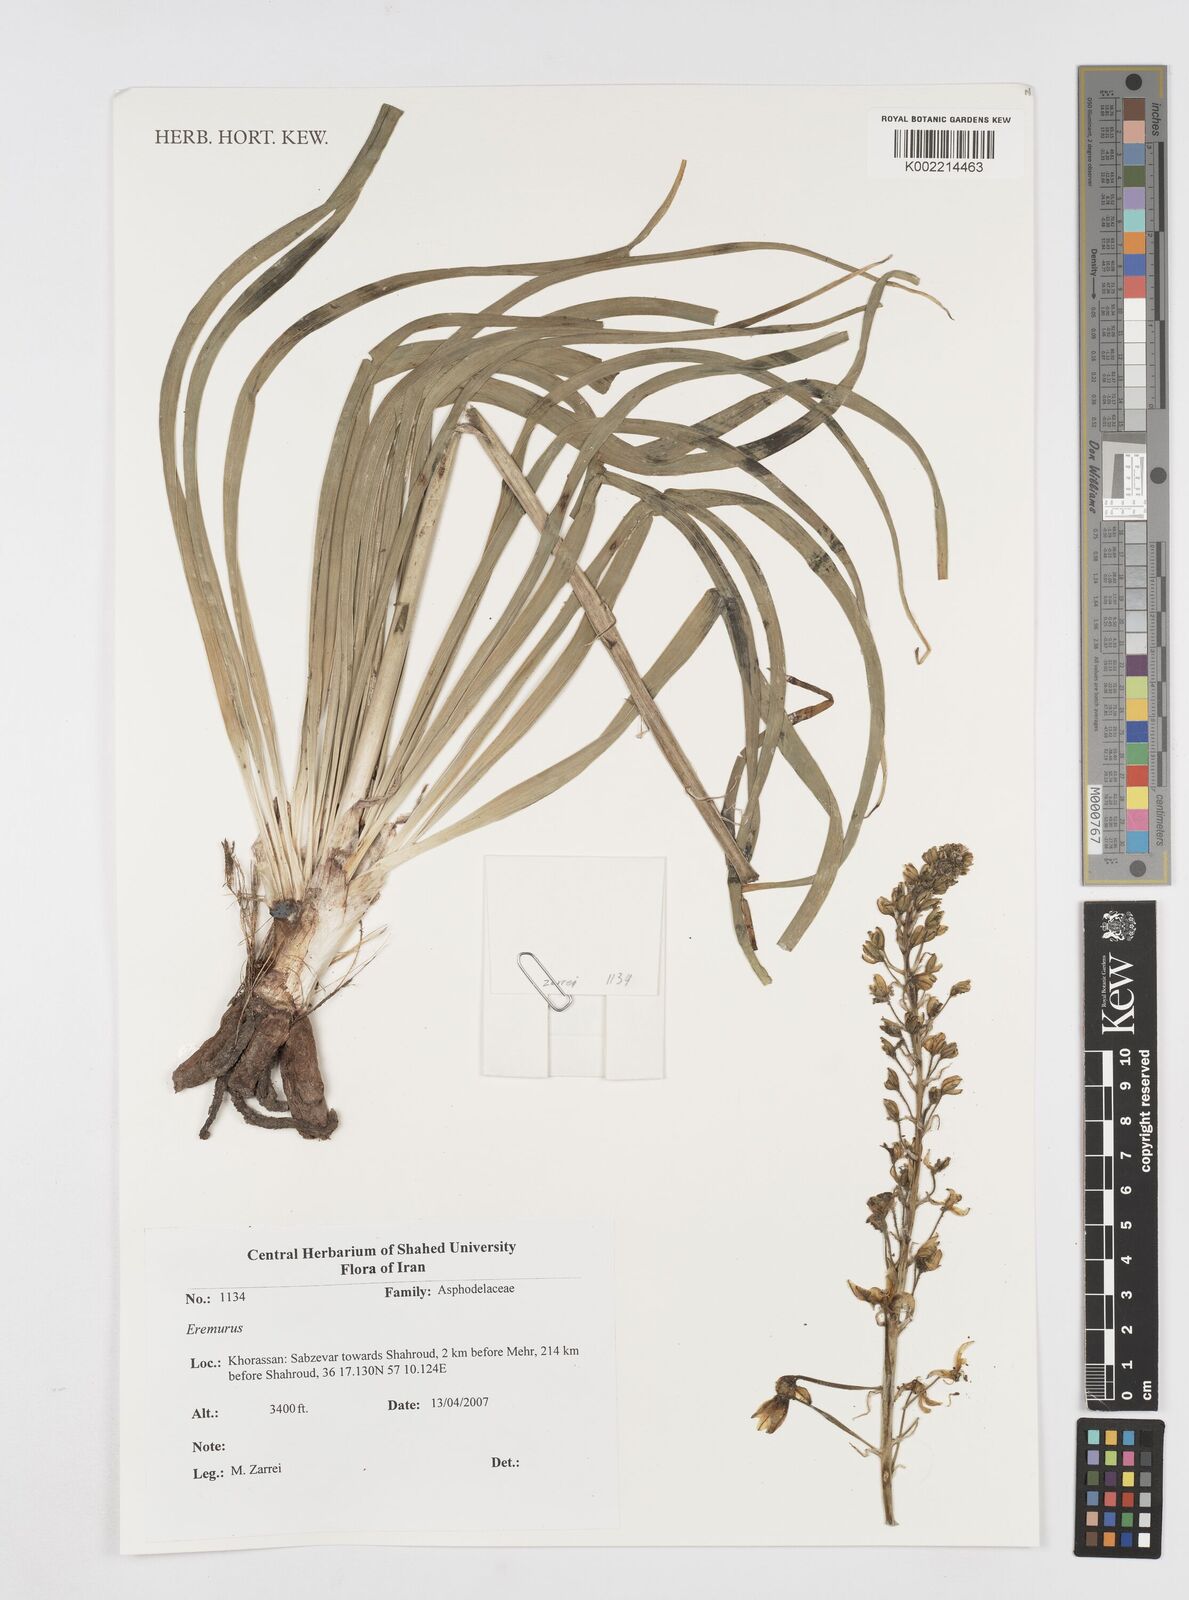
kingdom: Plantae
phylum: Tracheophyta
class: Liliopsida
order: Asparagales
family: Asphodelaceae
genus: Eremurus
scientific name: Eremurus
